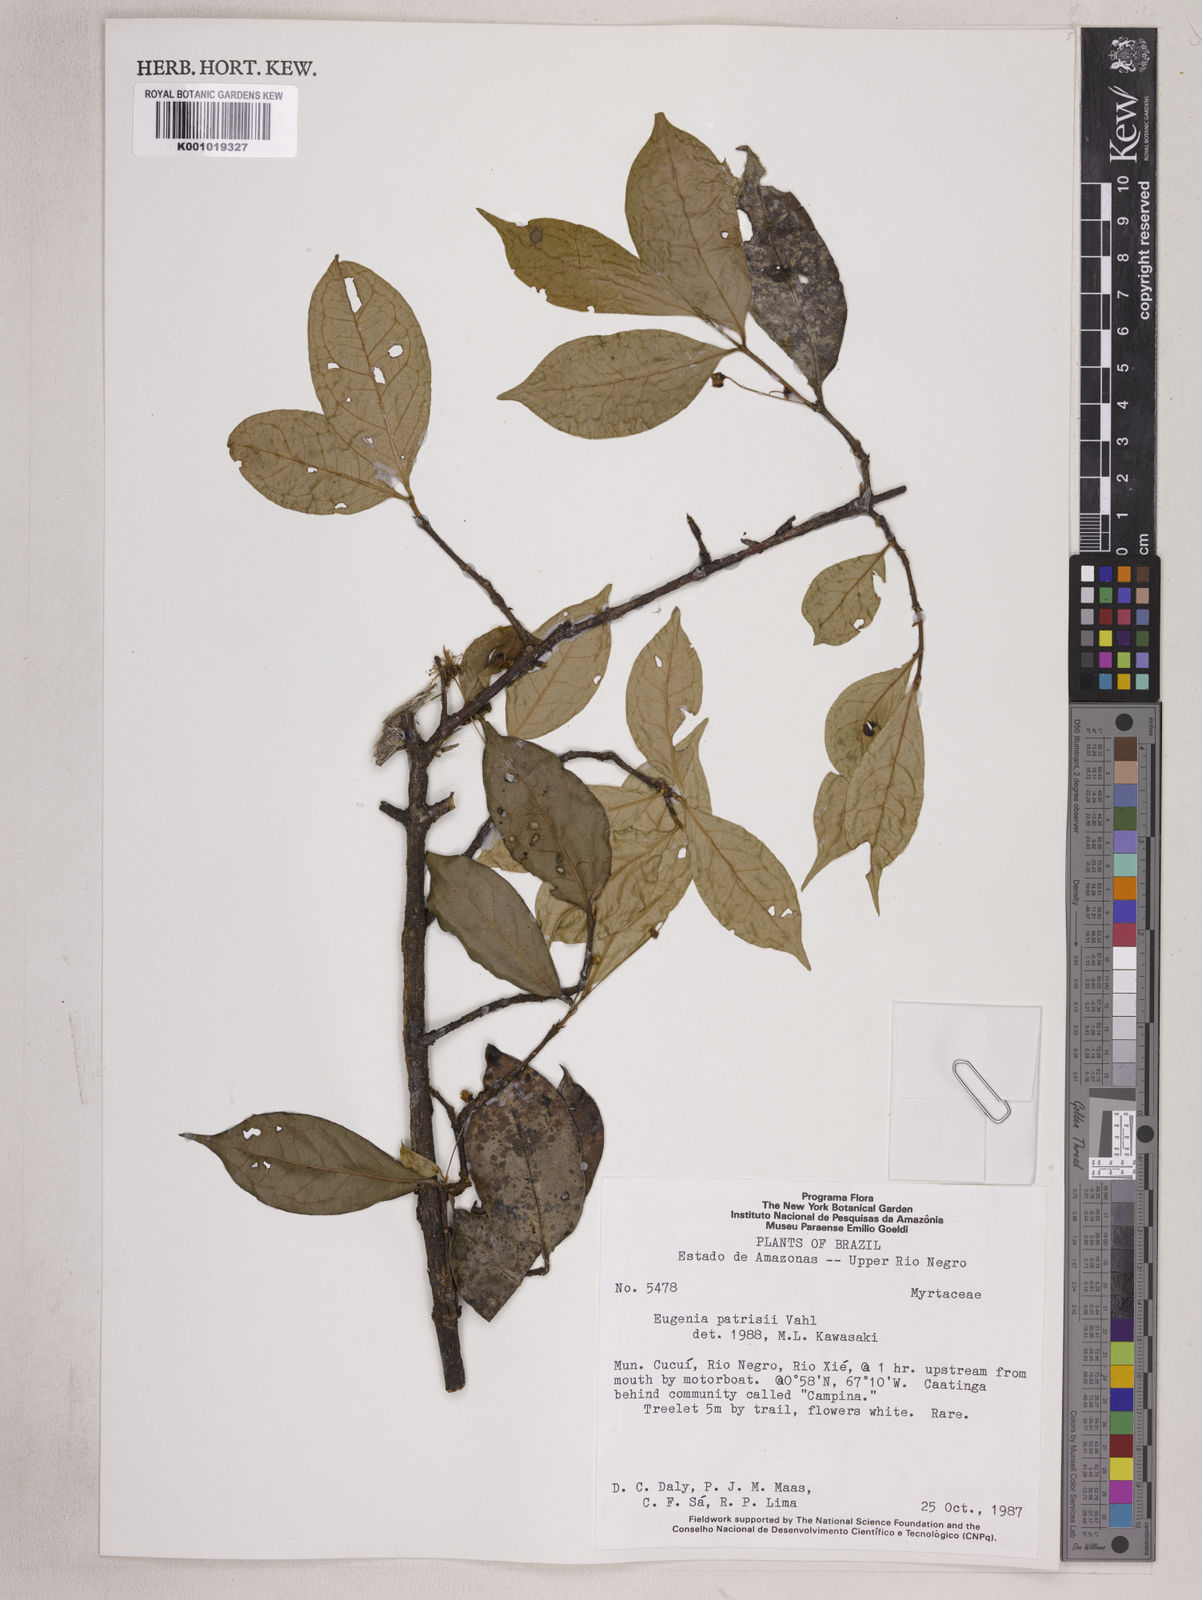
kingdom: Plantae
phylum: Tracheophyta
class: Magnoliopsida
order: Myrtales
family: Myrtaceae
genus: Eugenia
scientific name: Eugenia patrisii
